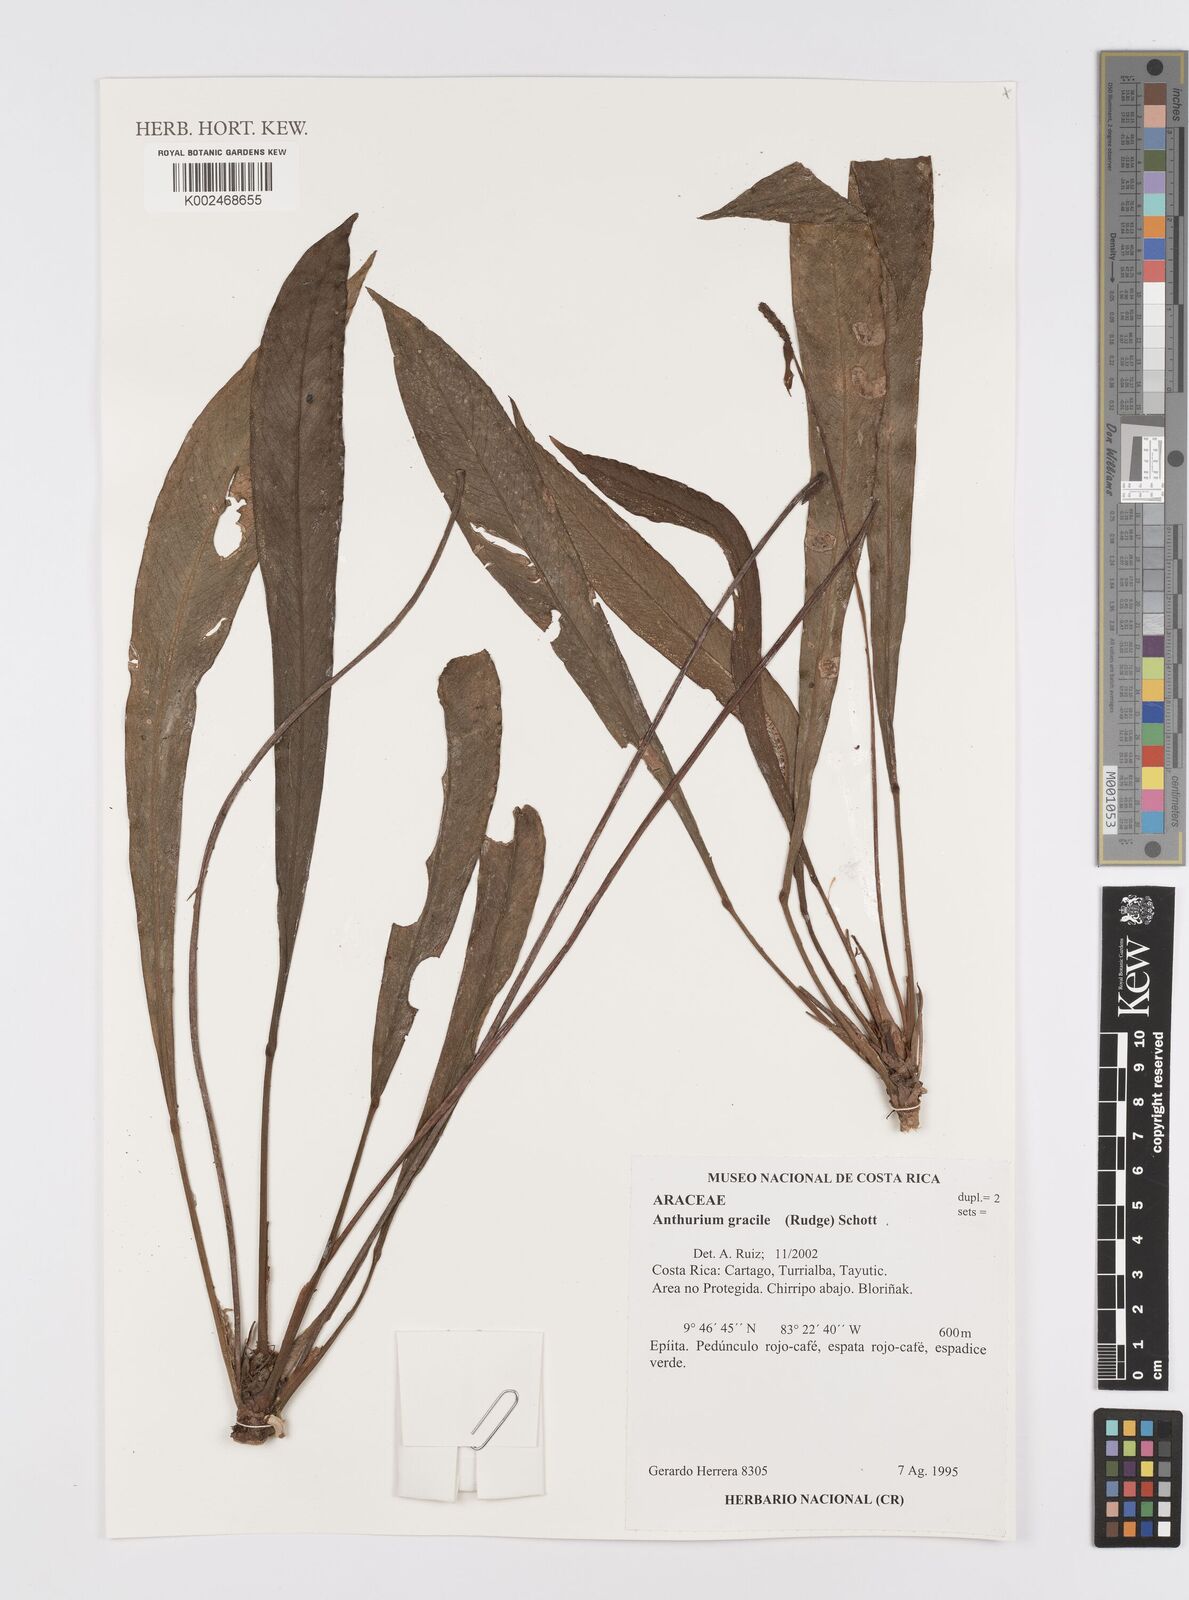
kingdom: Plantae
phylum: Tracheophyta
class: Liliopsida
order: Alismatales
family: Araceae
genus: Anthurium
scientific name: Anthurium gracile
